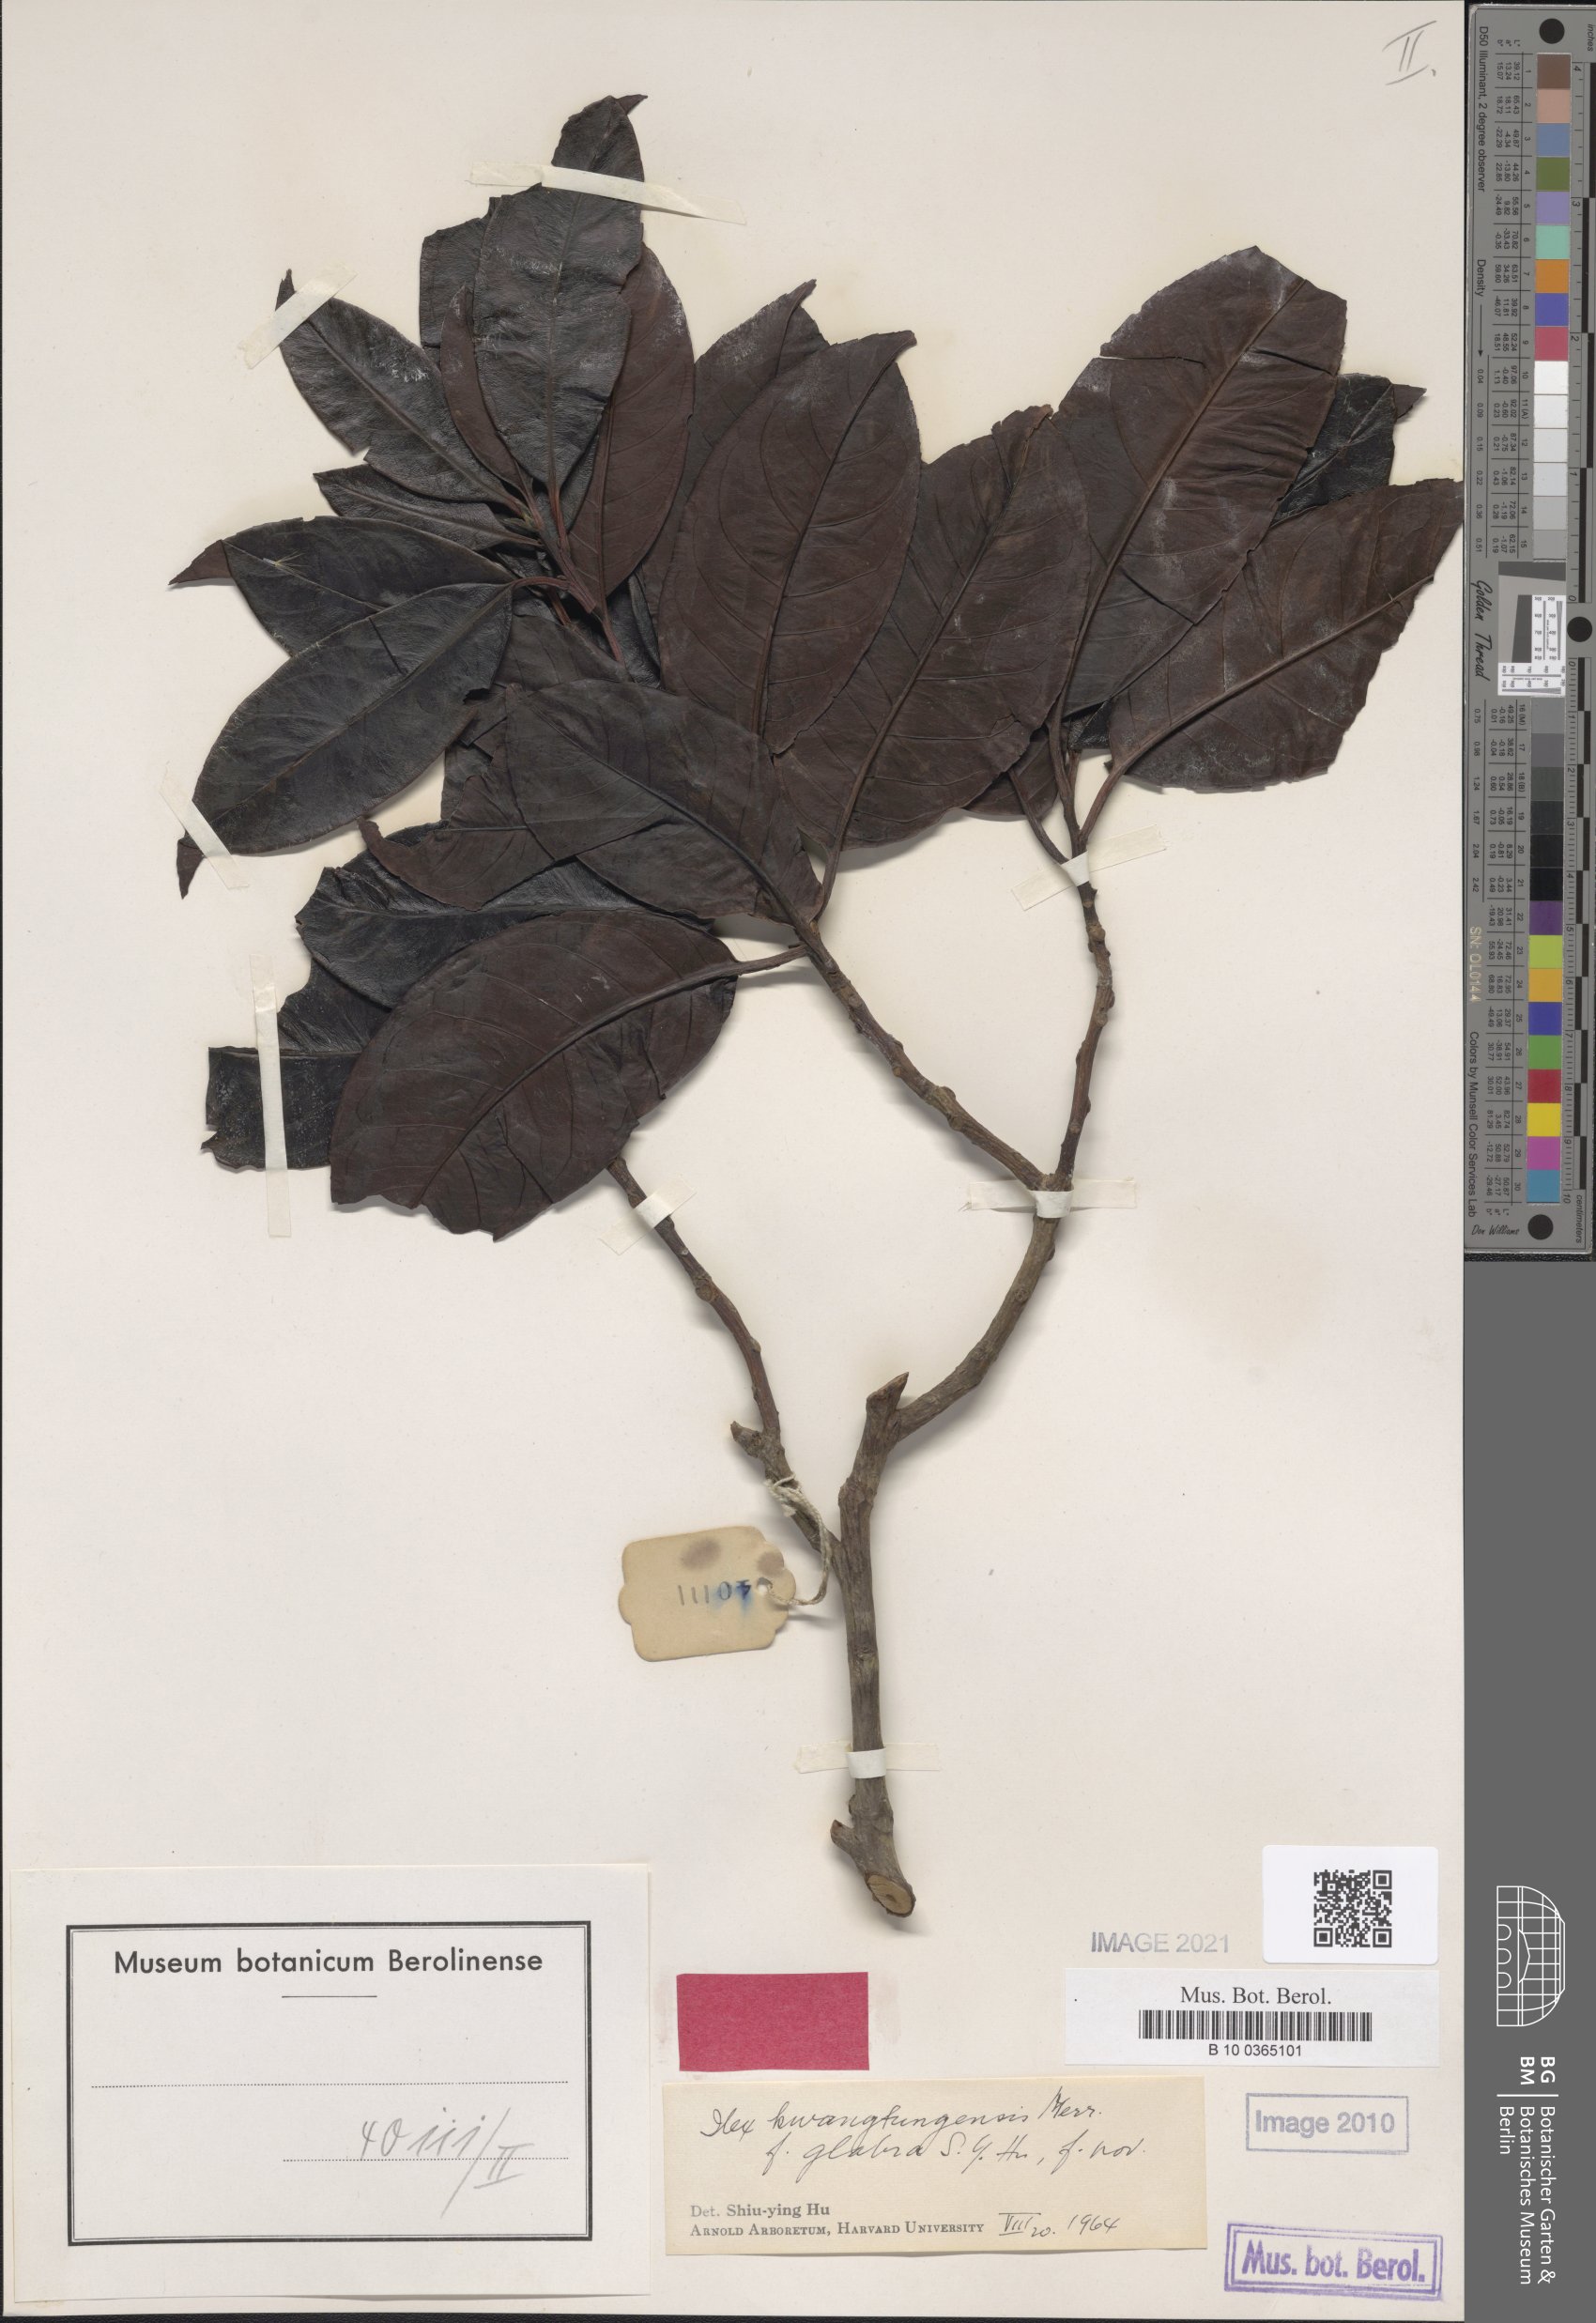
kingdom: Plantae
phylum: Tracheophyta
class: Magnoliopsida
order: Aquifoliales
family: Aquifoliaceae
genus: Ilex
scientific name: Ilex kwangtungensis
